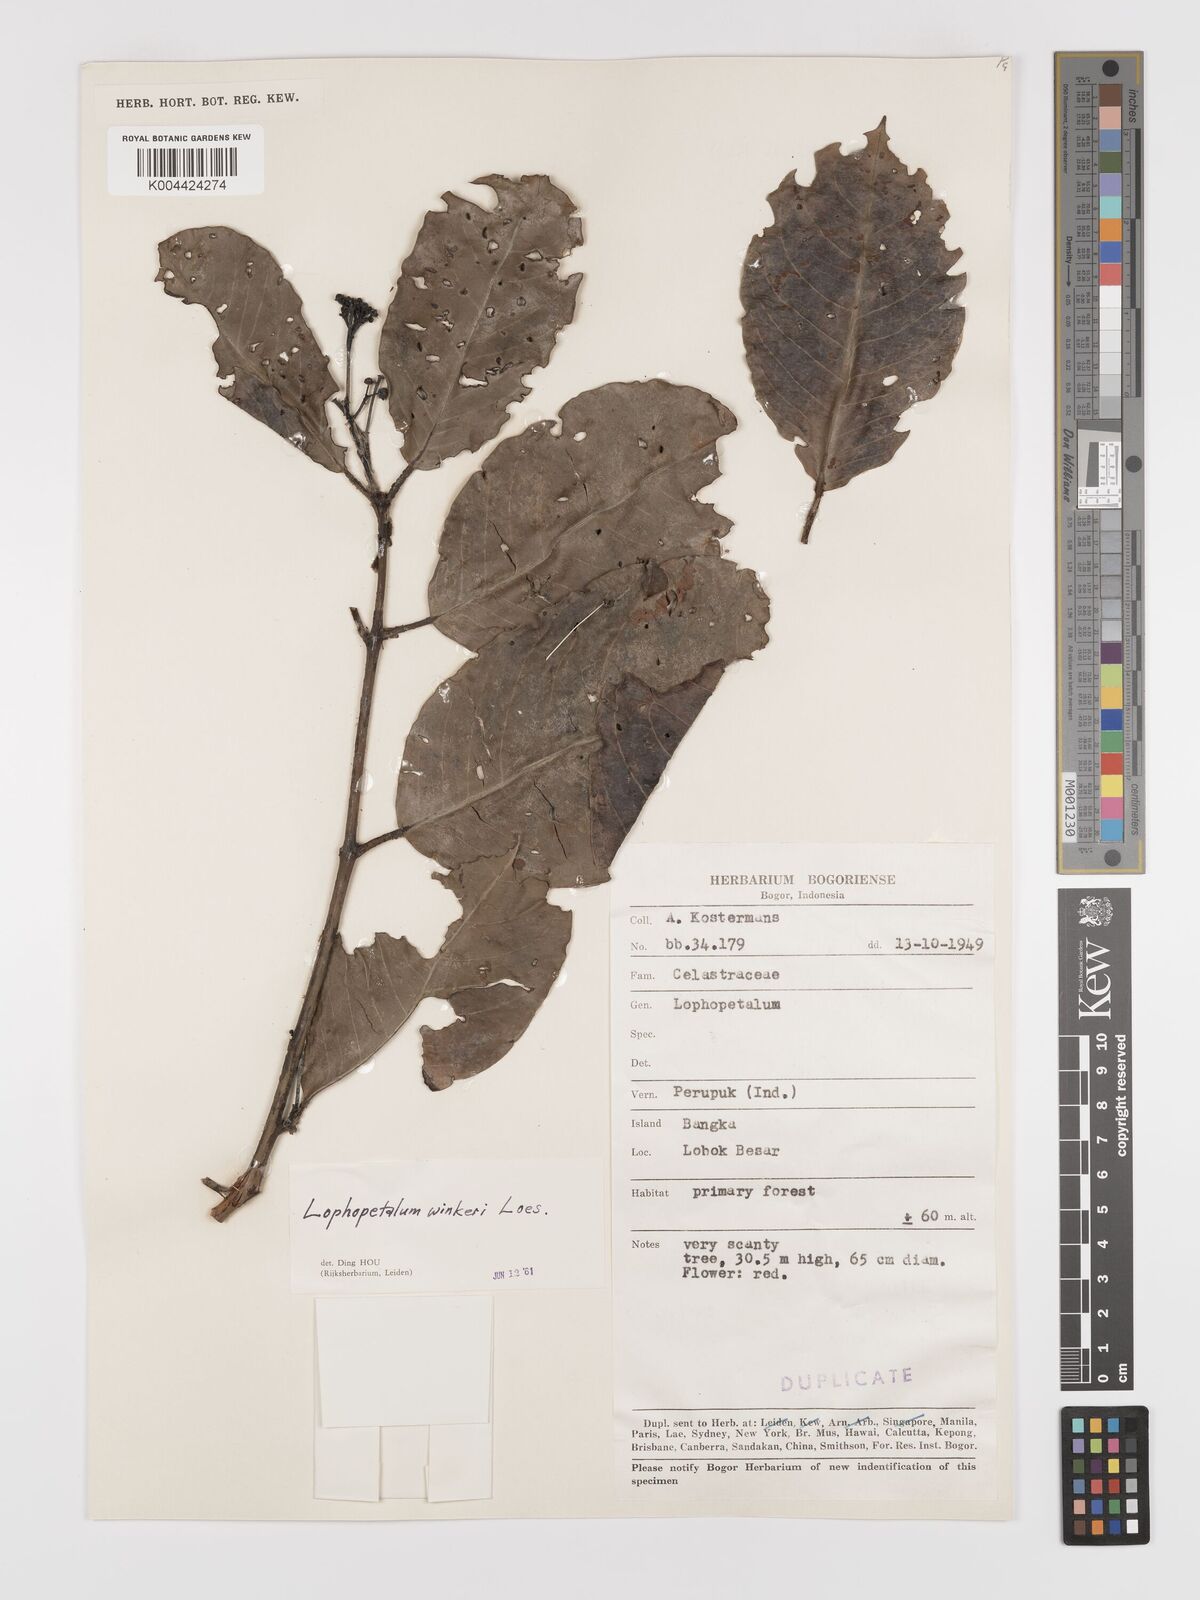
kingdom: Plantae
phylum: Tracheophyta
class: Magnoliopsida
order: Celastrales
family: Celastraceae
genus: Lophopetalum
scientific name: Lophopetalum wightianum
